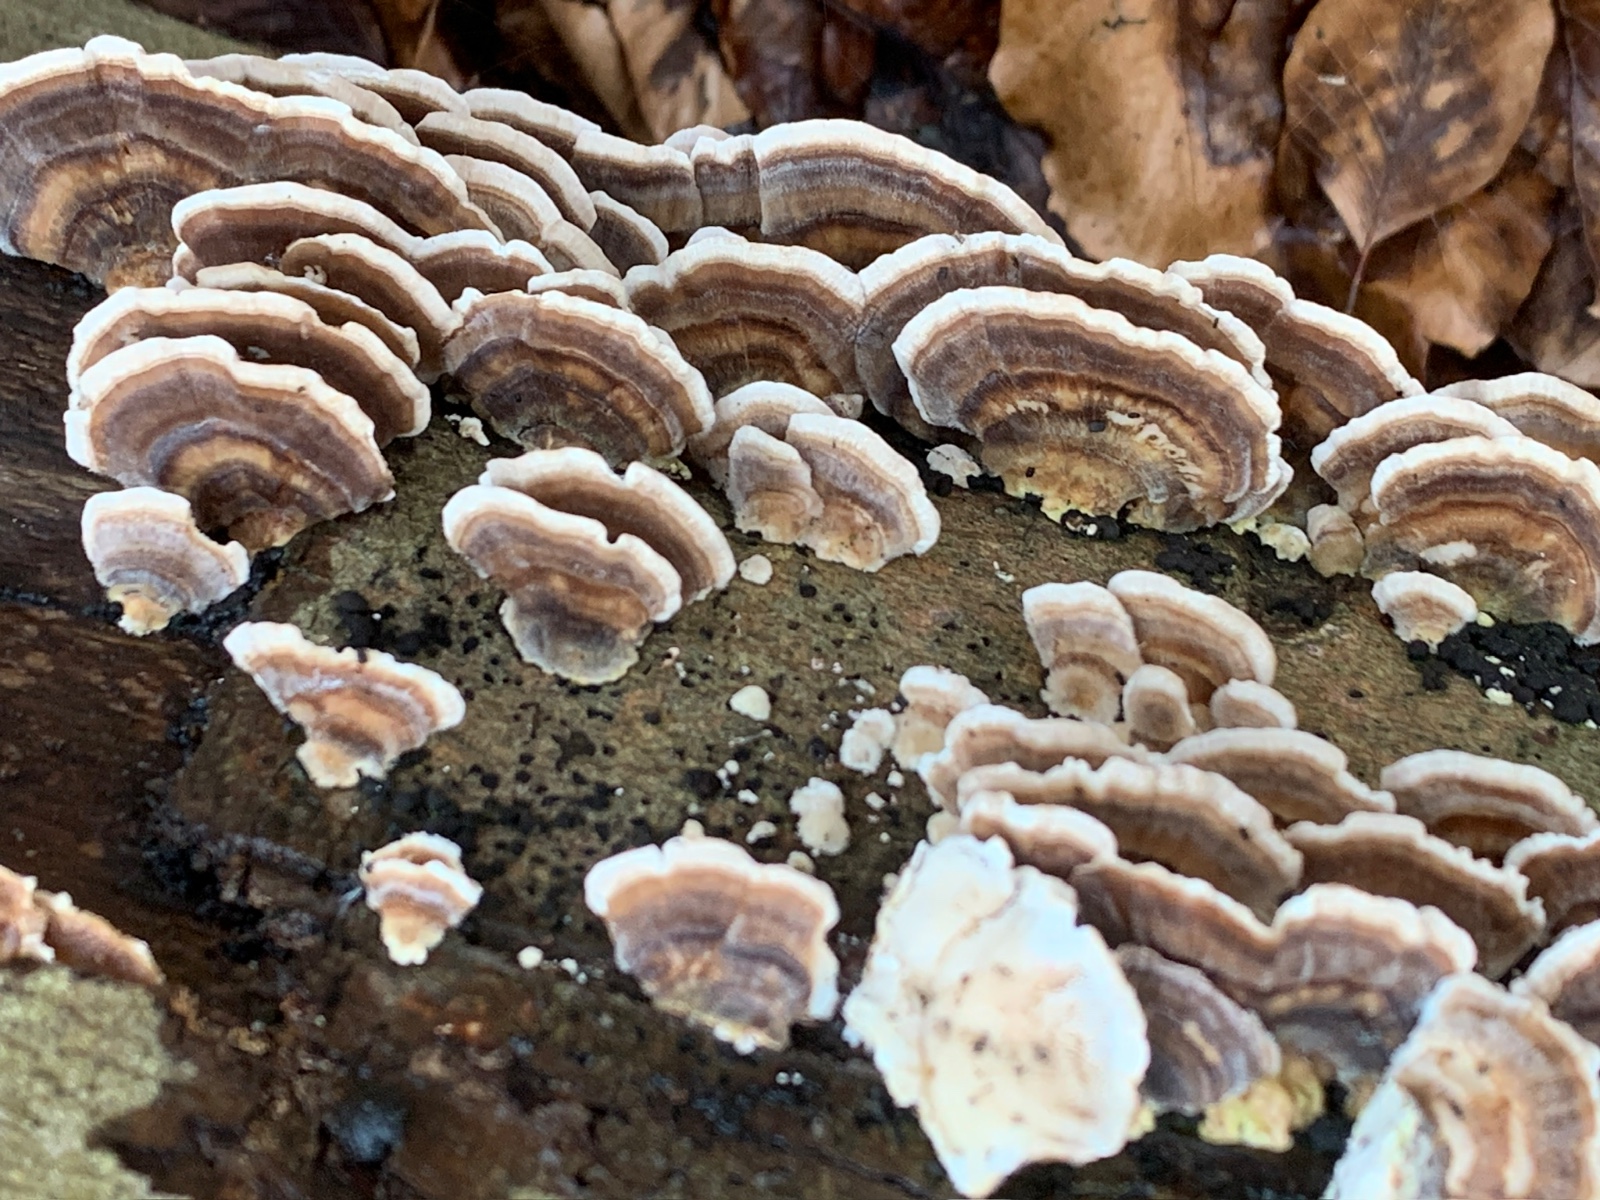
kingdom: Fungi
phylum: Basidiomycota
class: Agaricomycetes
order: Polyporales
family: Polyporaceae
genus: Trametes
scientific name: Trametes versicolor
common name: broget læderporesvamp
